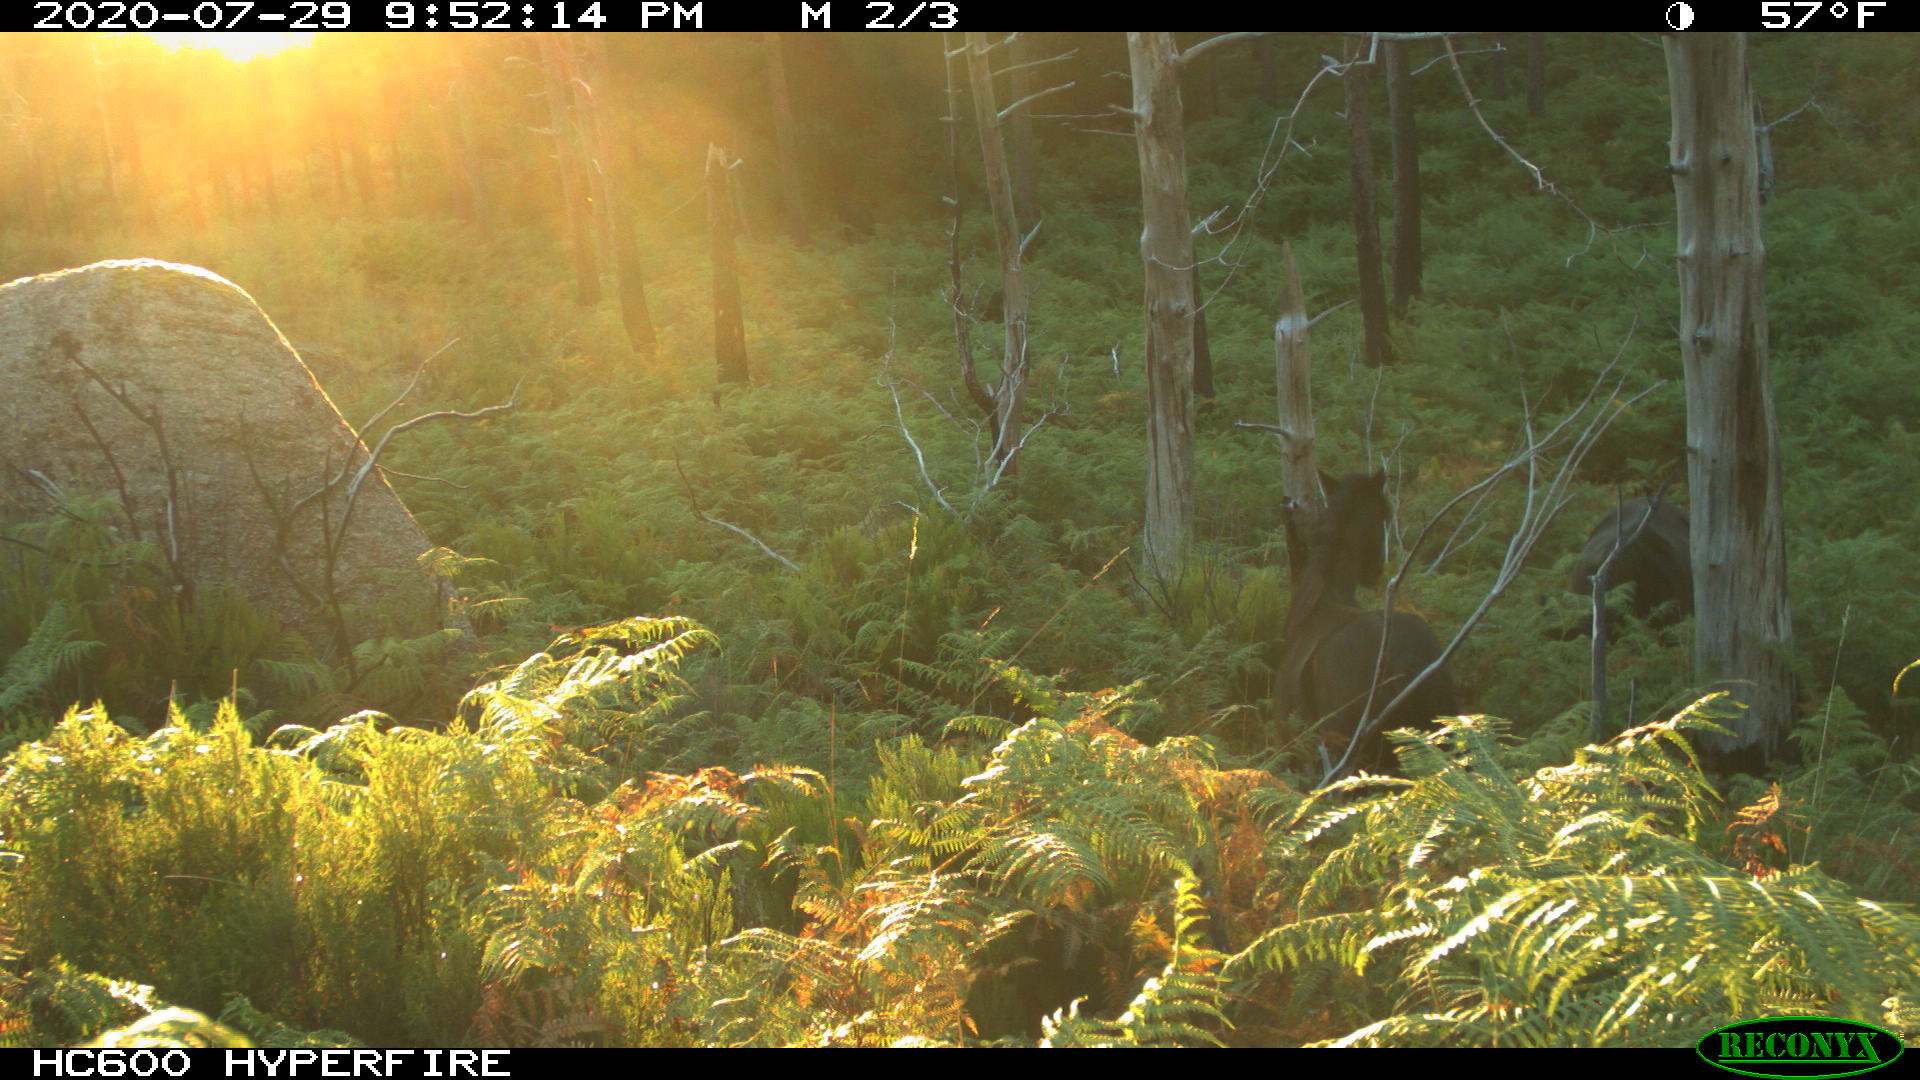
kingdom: Animalia
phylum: Chordata
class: Mammalia
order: Perissodactyla
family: Equidae
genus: Equus
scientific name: Equus caballus
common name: Horse
